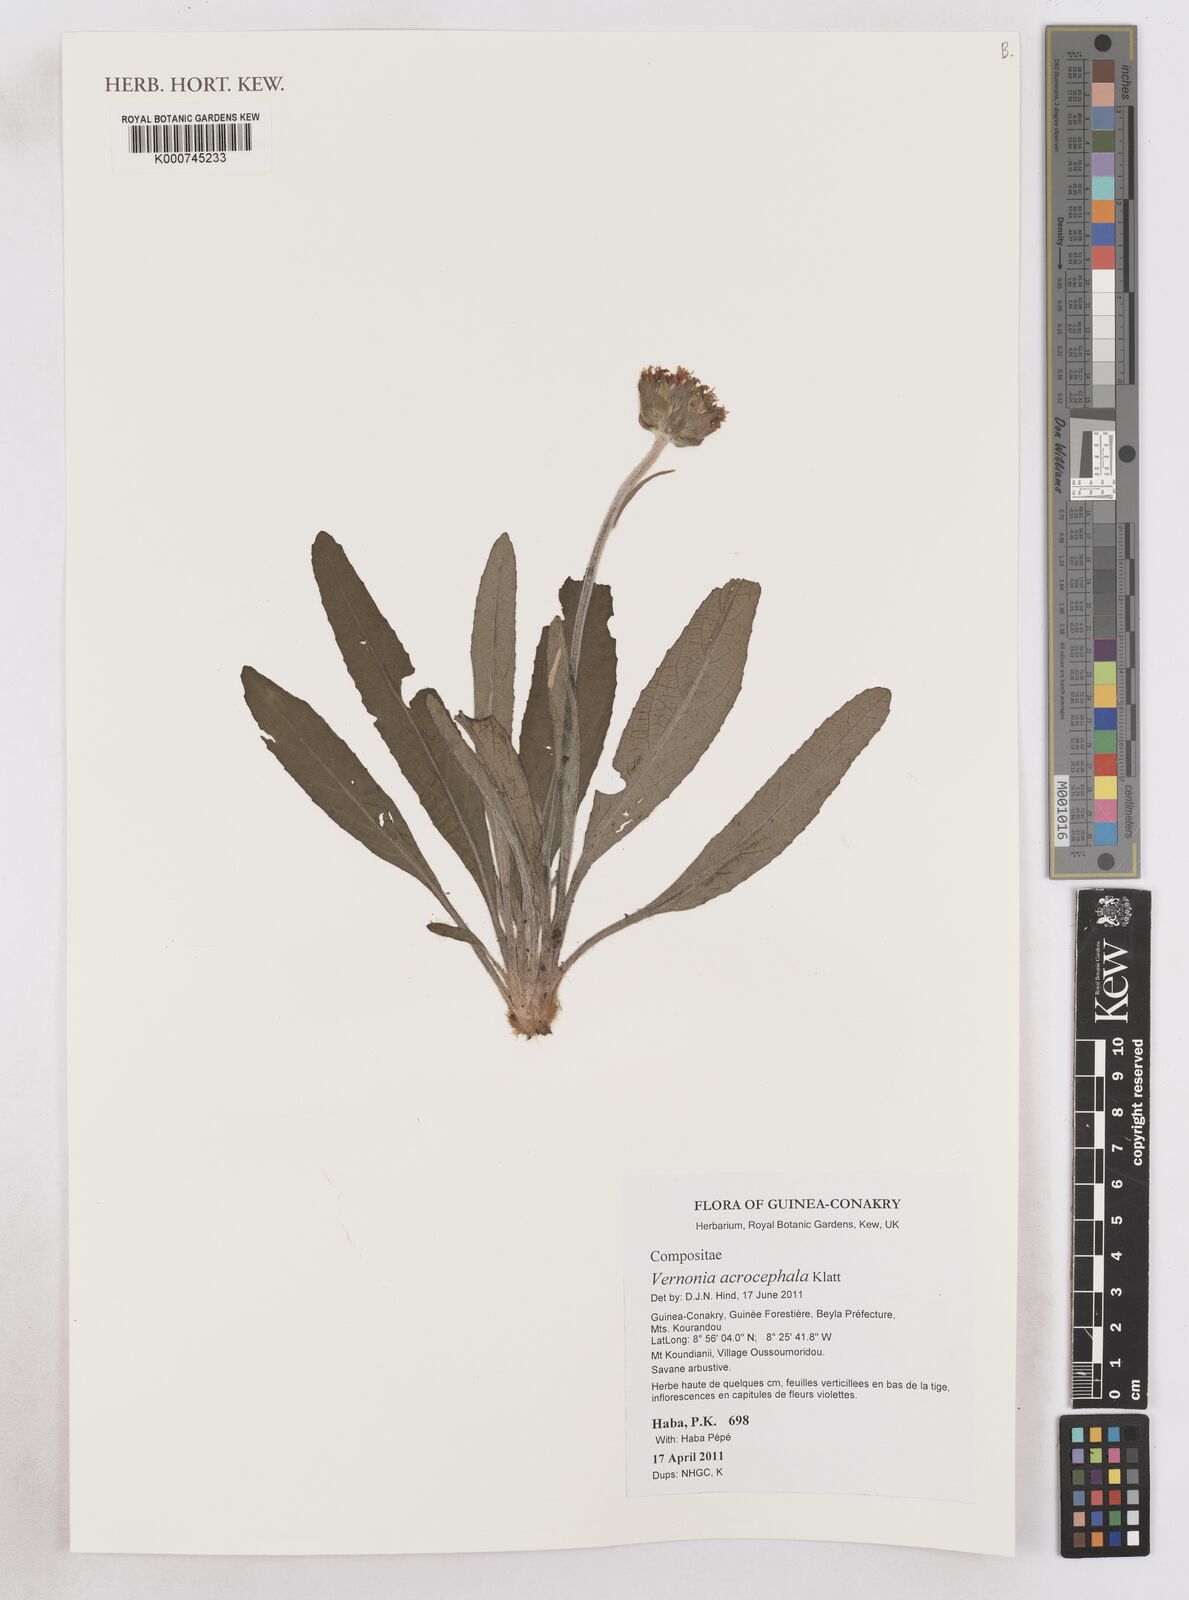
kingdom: Plantae
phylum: Tracheophyta
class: Magnoliopsida
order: Asterales
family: Asteraceae
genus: Vernonella
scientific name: Vernonella acrocephala
